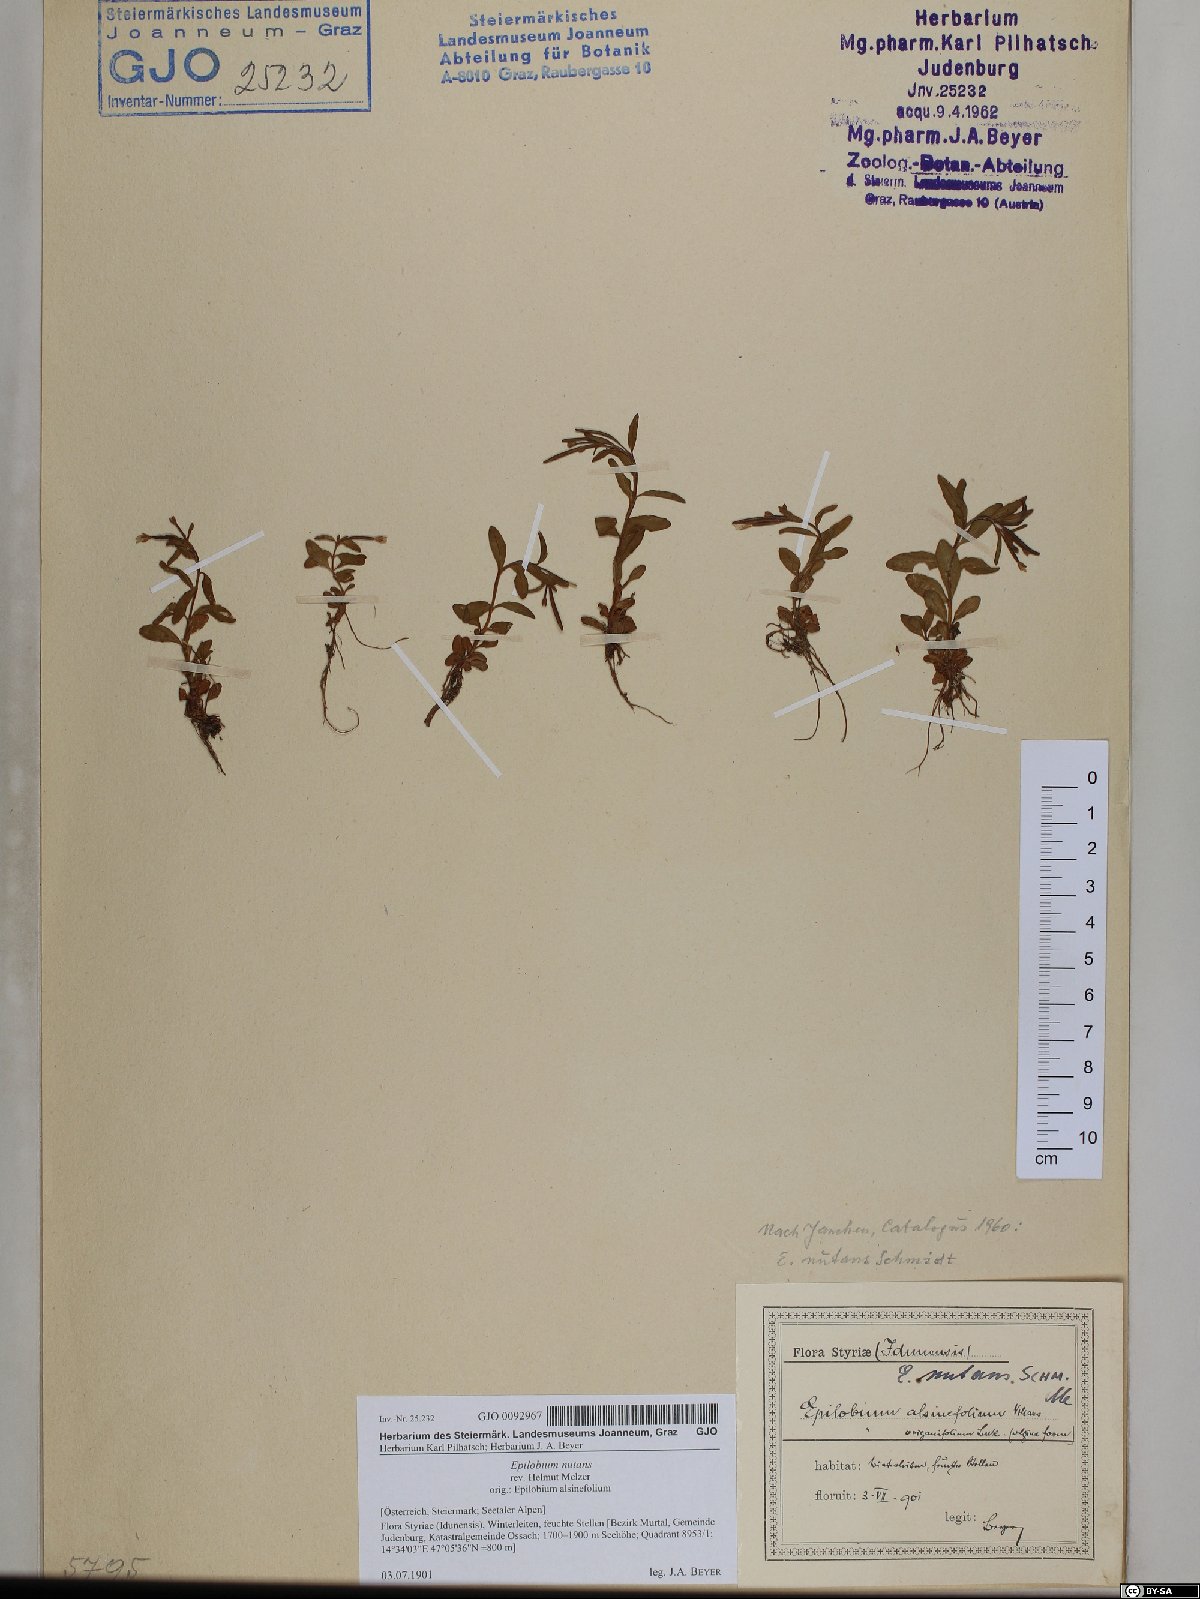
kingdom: Plantae
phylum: Tracheophyta
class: Magnoliopsida
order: Myrtales
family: Onagraceae
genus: Epilobium
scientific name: Epilobium nutans
